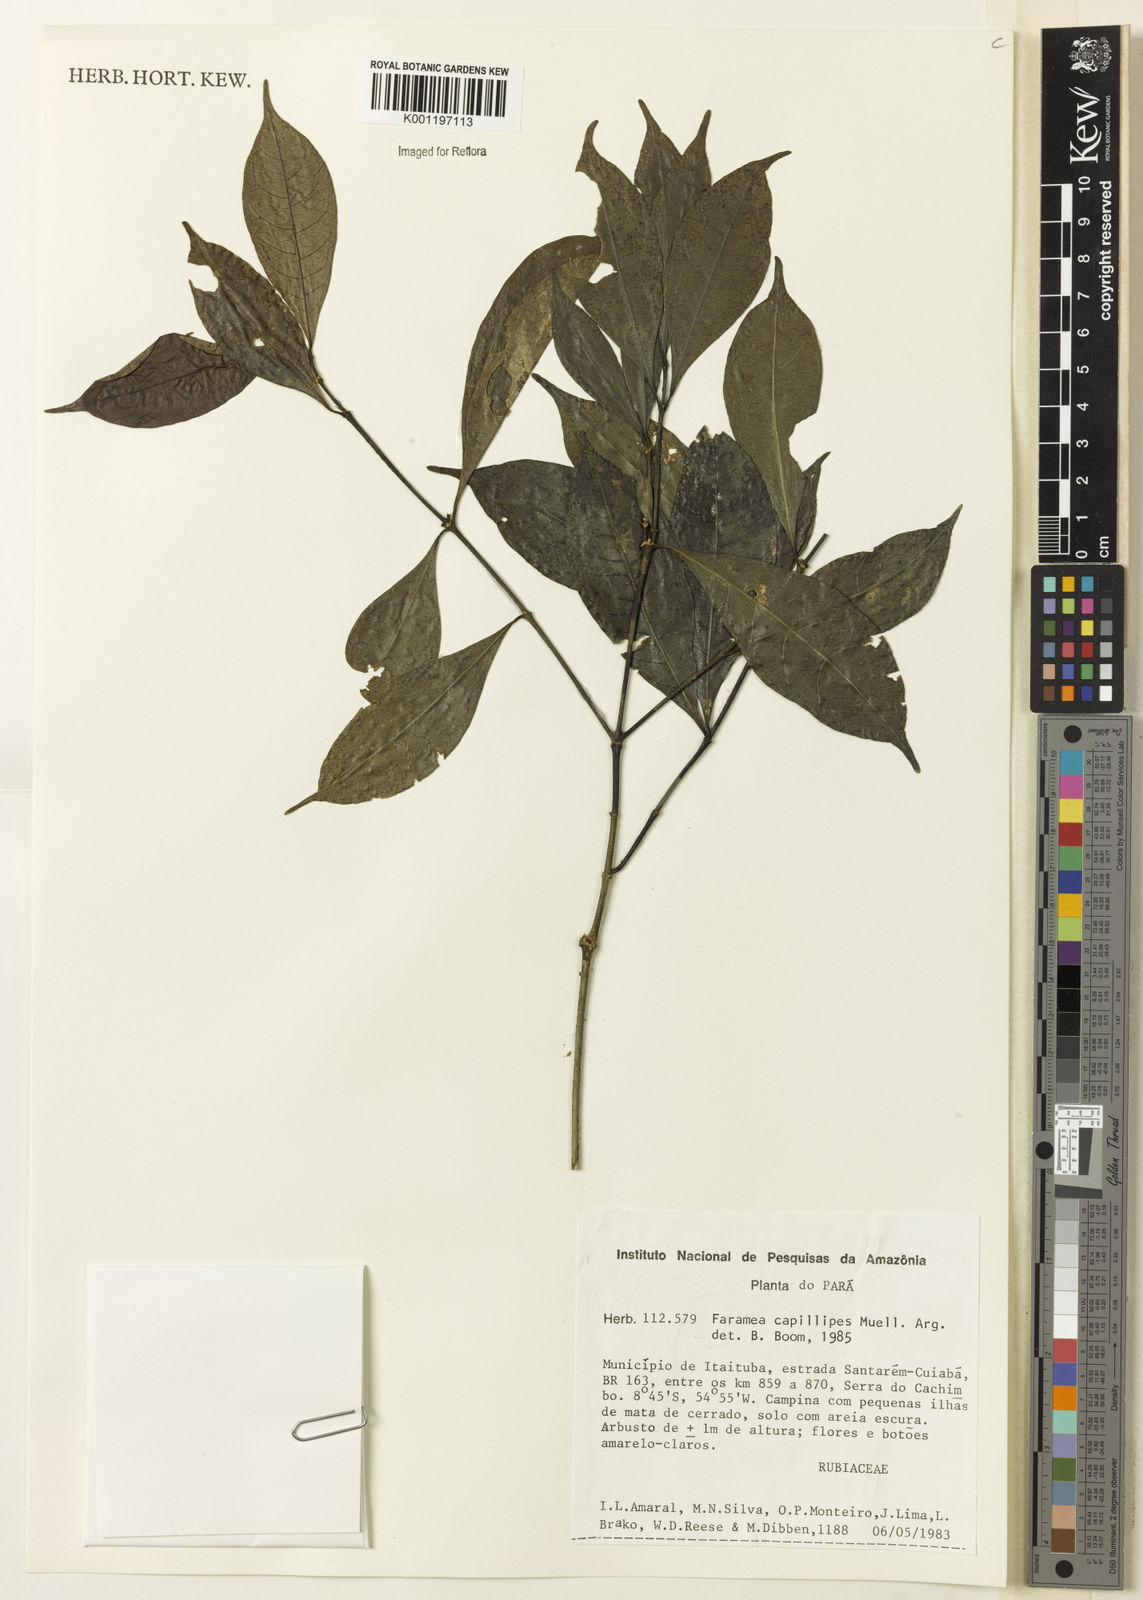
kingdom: Plantae
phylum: Tracheophyta
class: Magnoliopsida
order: Gentianales
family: Rubiaceae
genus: Faramea
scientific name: Faramea
